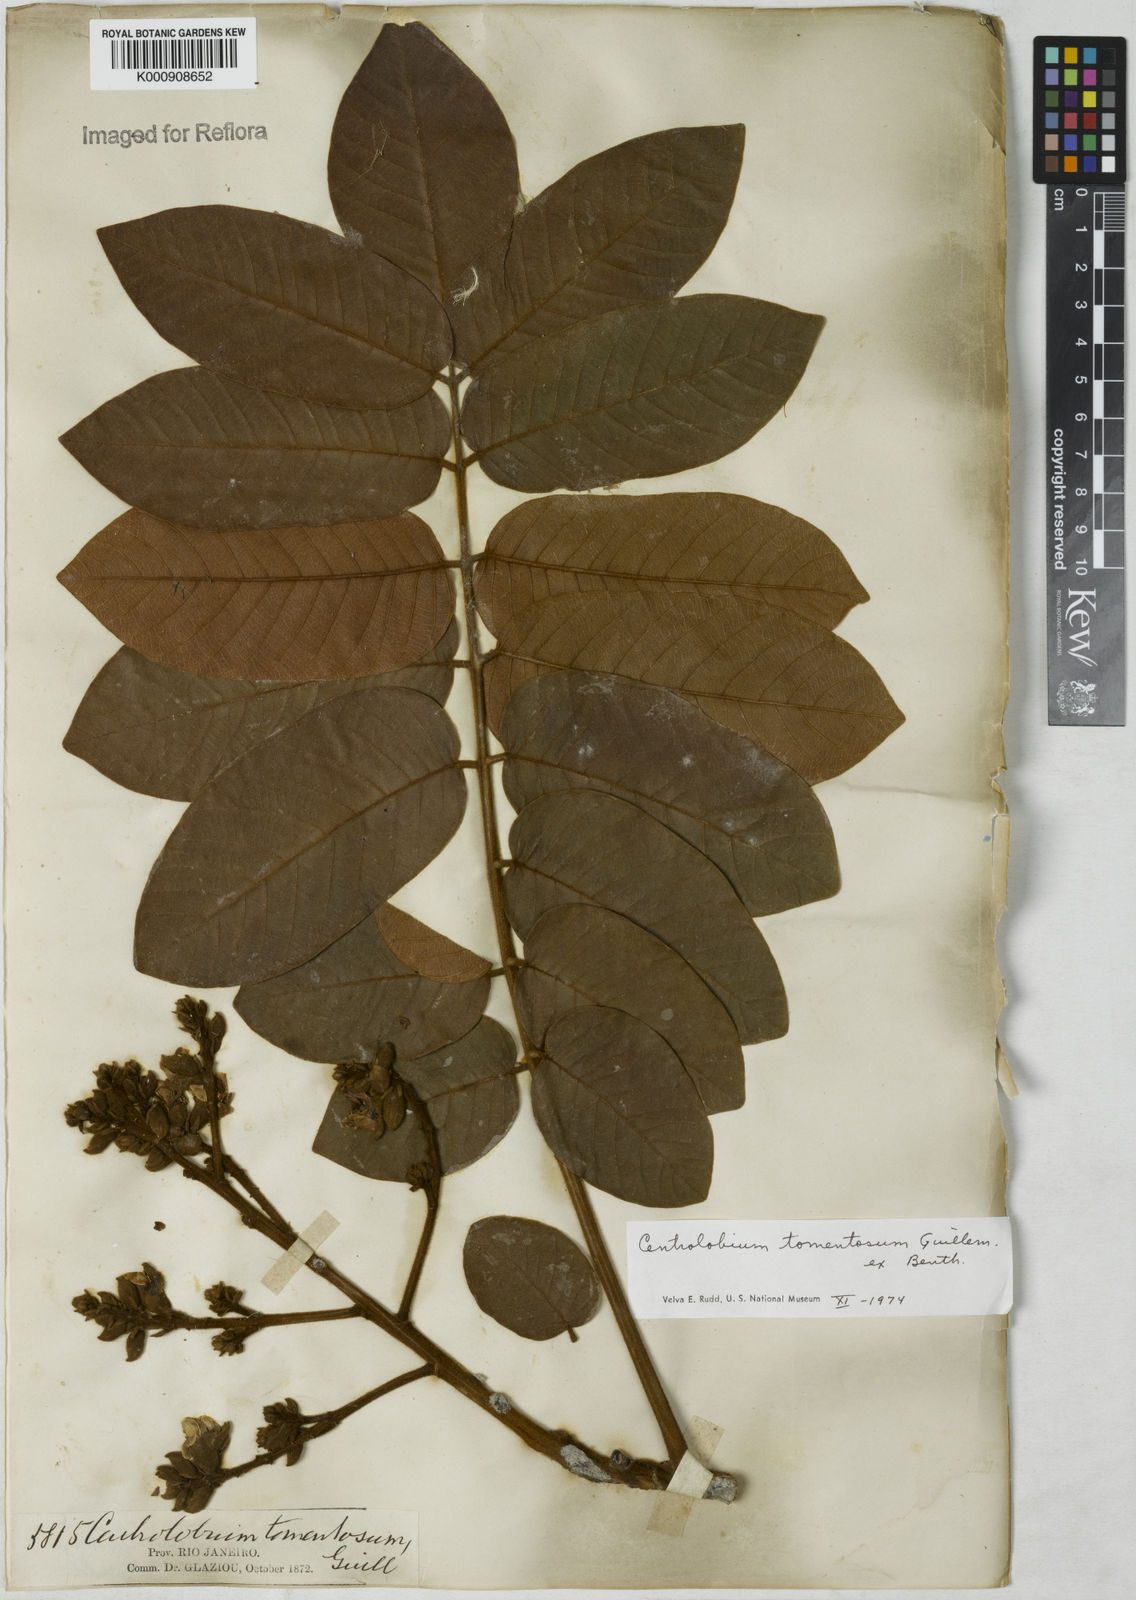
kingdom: Plantae
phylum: Tracheophyta
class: Magnoliopsida
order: Fabales
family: Fabaceae
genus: Centrolobium
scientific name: Centrolobium tomentosum
